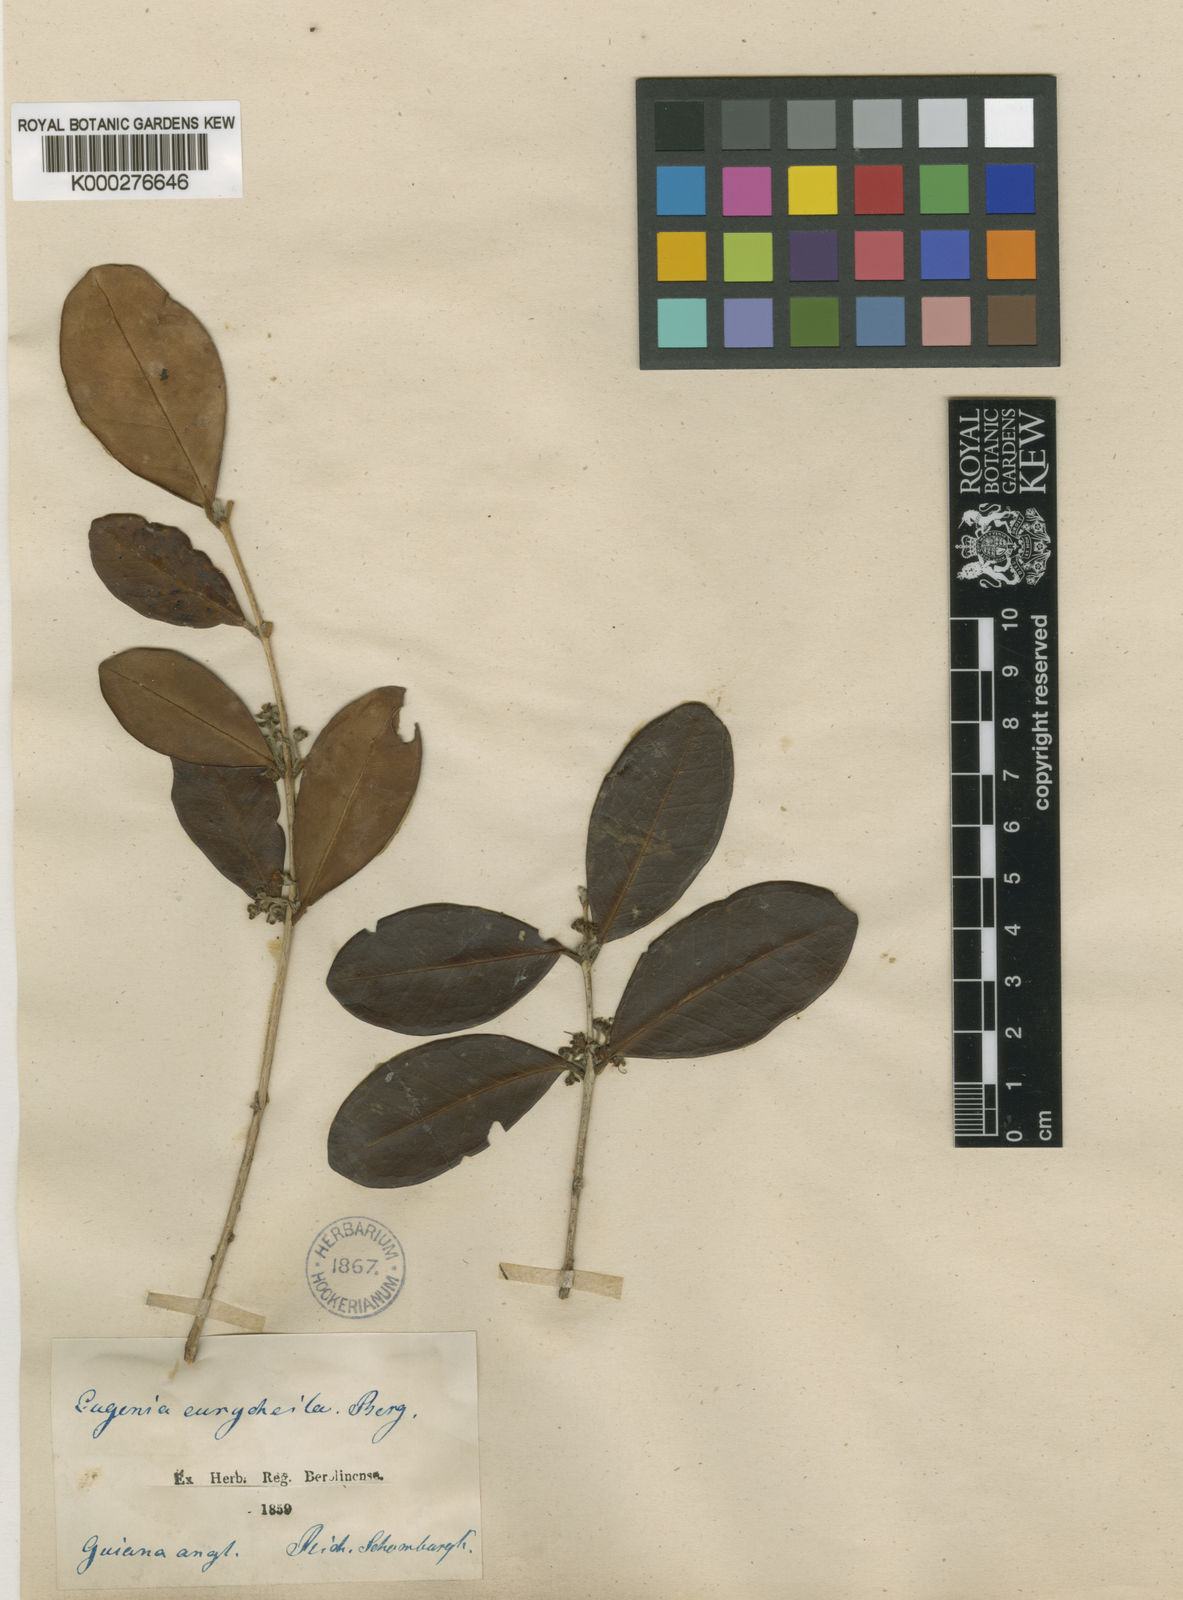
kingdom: Plantae
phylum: Tracheophyta
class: Magnoliopsida
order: Myrtales
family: Myrtaceae
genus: Eugenia
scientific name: Eugenia eurycheila
